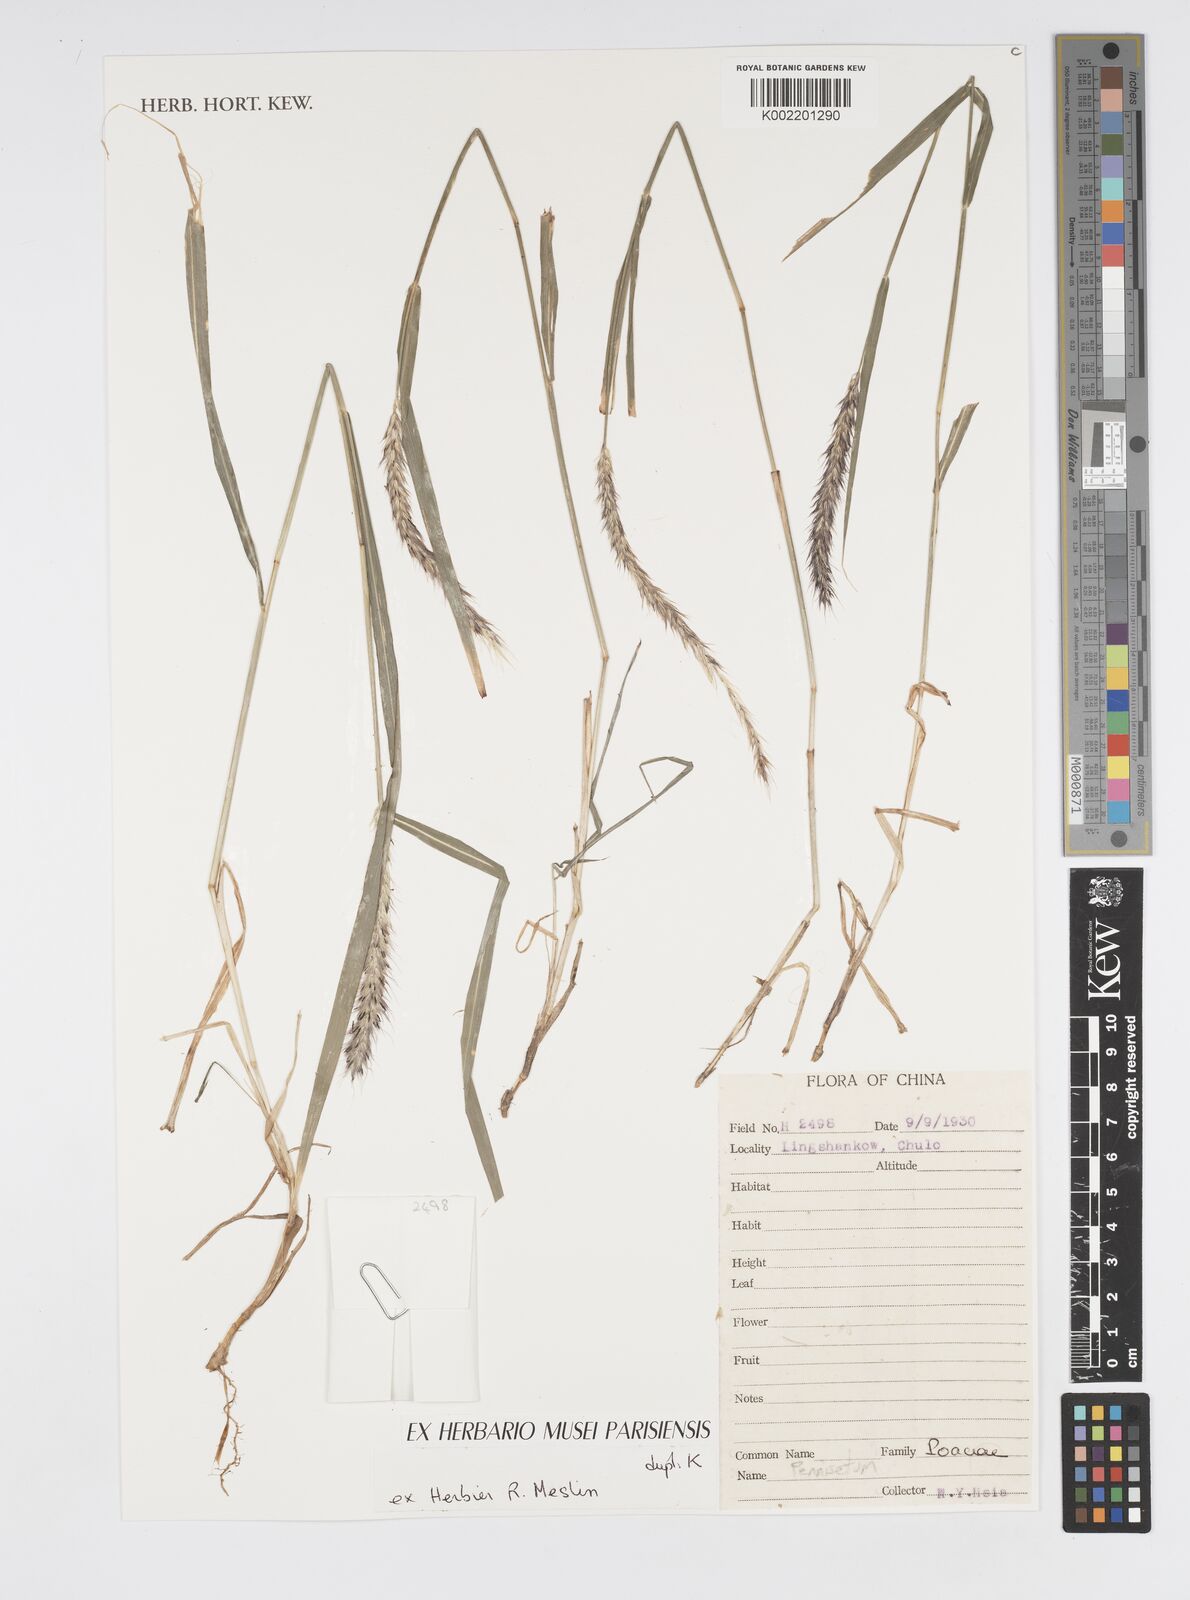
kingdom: Plantae
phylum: Tracheophyta
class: Liliopsida
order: Poales
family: Poaceae
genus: Cenchrus
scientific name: Cenchrus Pennisetum spec
